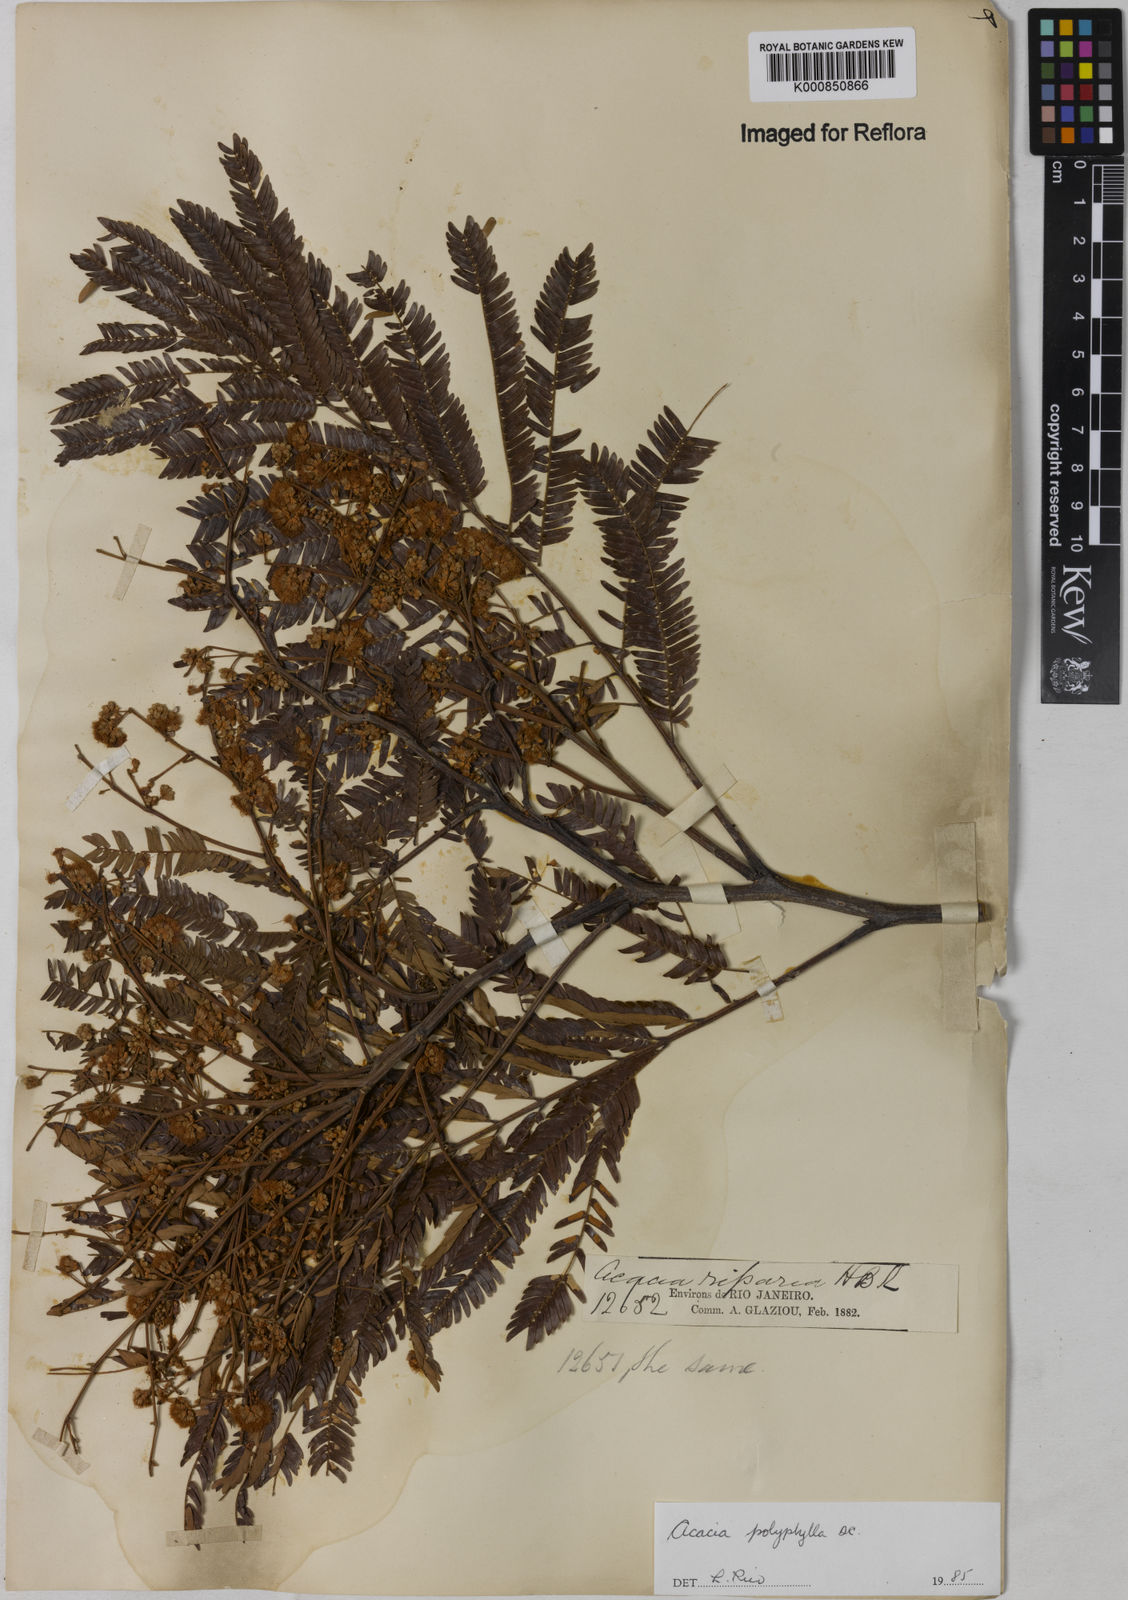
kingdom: Plantae
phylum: Tracheophyta
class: Magnoliopsida
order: Fabales
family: Fabaceae
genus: Senegalia
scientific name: Senegalia polyphylla
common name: White-tamarind
